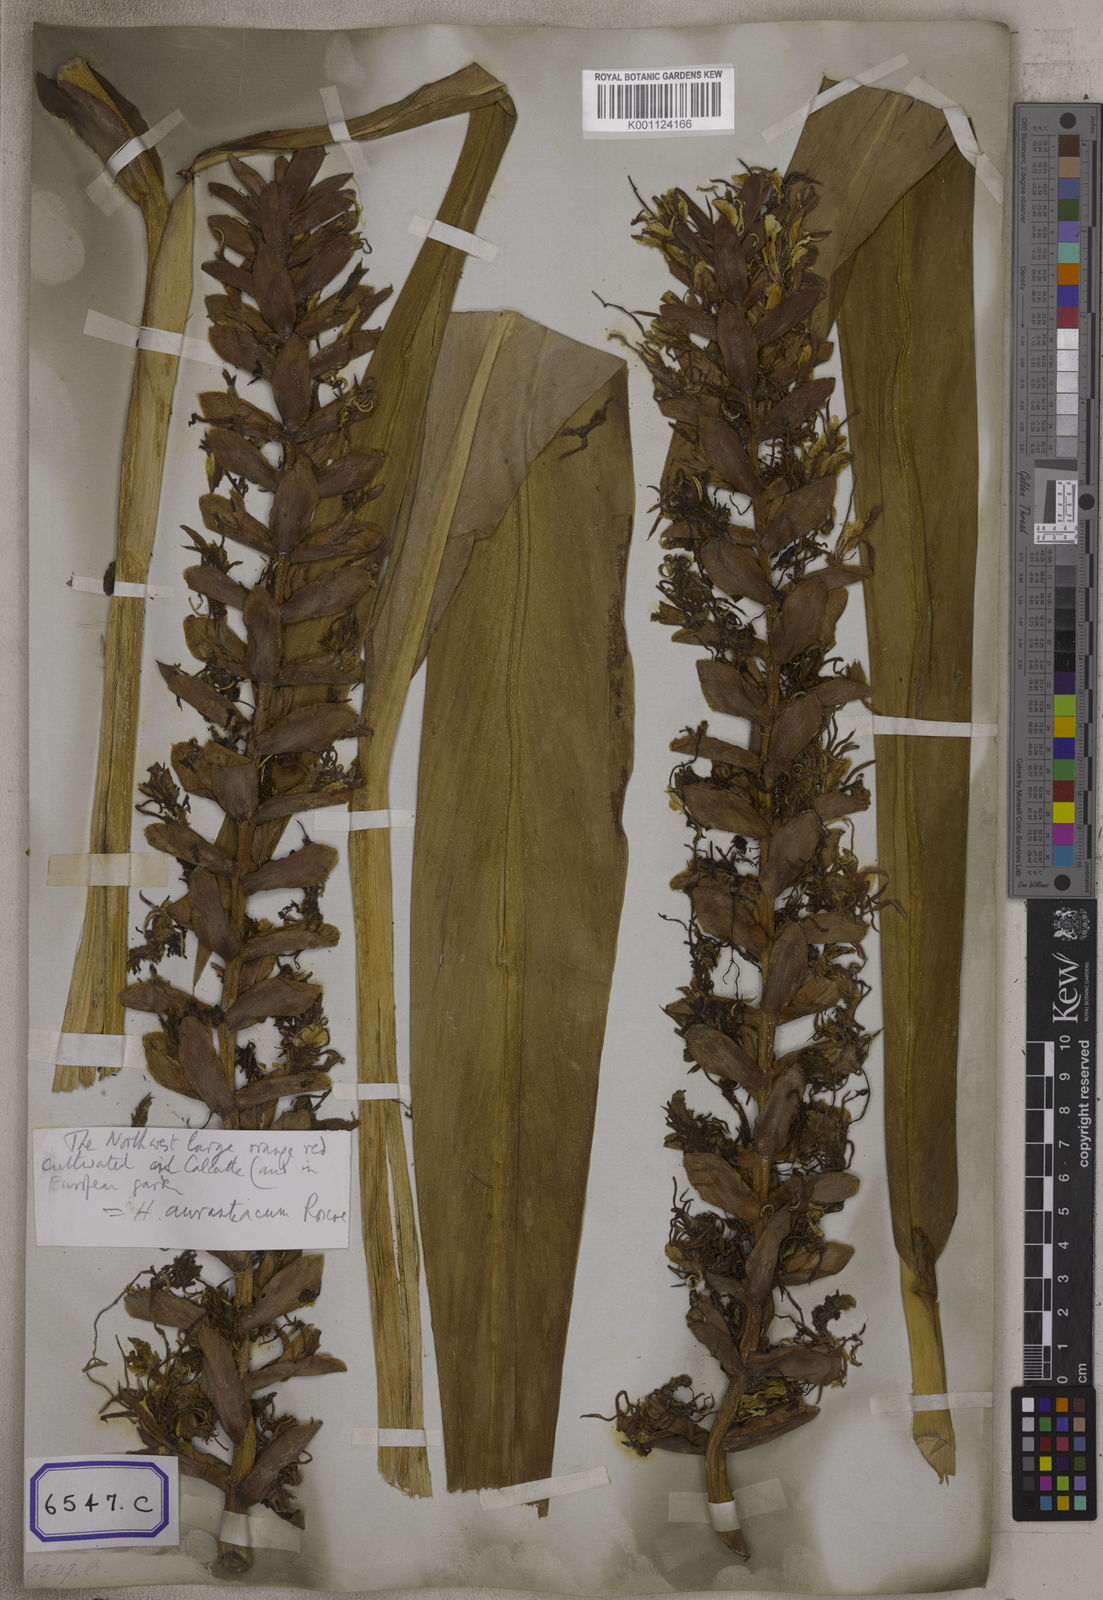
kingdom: Plantae
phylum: Tracheophyta
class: Liliopsida
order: Zingiberales
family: Zingiberaceae
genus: Hedychium
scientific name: Hedychium coccineum
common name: Red ginger-lily
